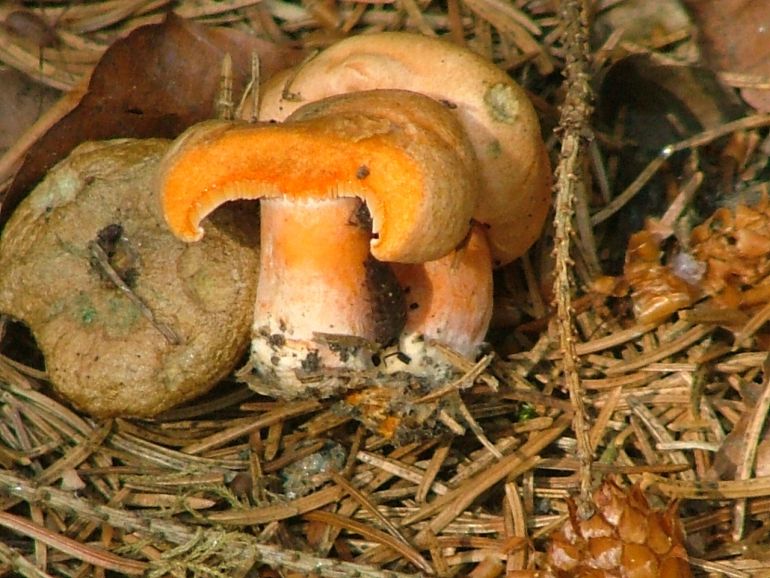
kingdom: Fungi
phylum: Basidiomycota
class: Agaricomycetes
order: Russulales
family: Russulaceae
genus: Lactarius
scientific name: Lactarius deterrimus
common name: gran-mælkehat
